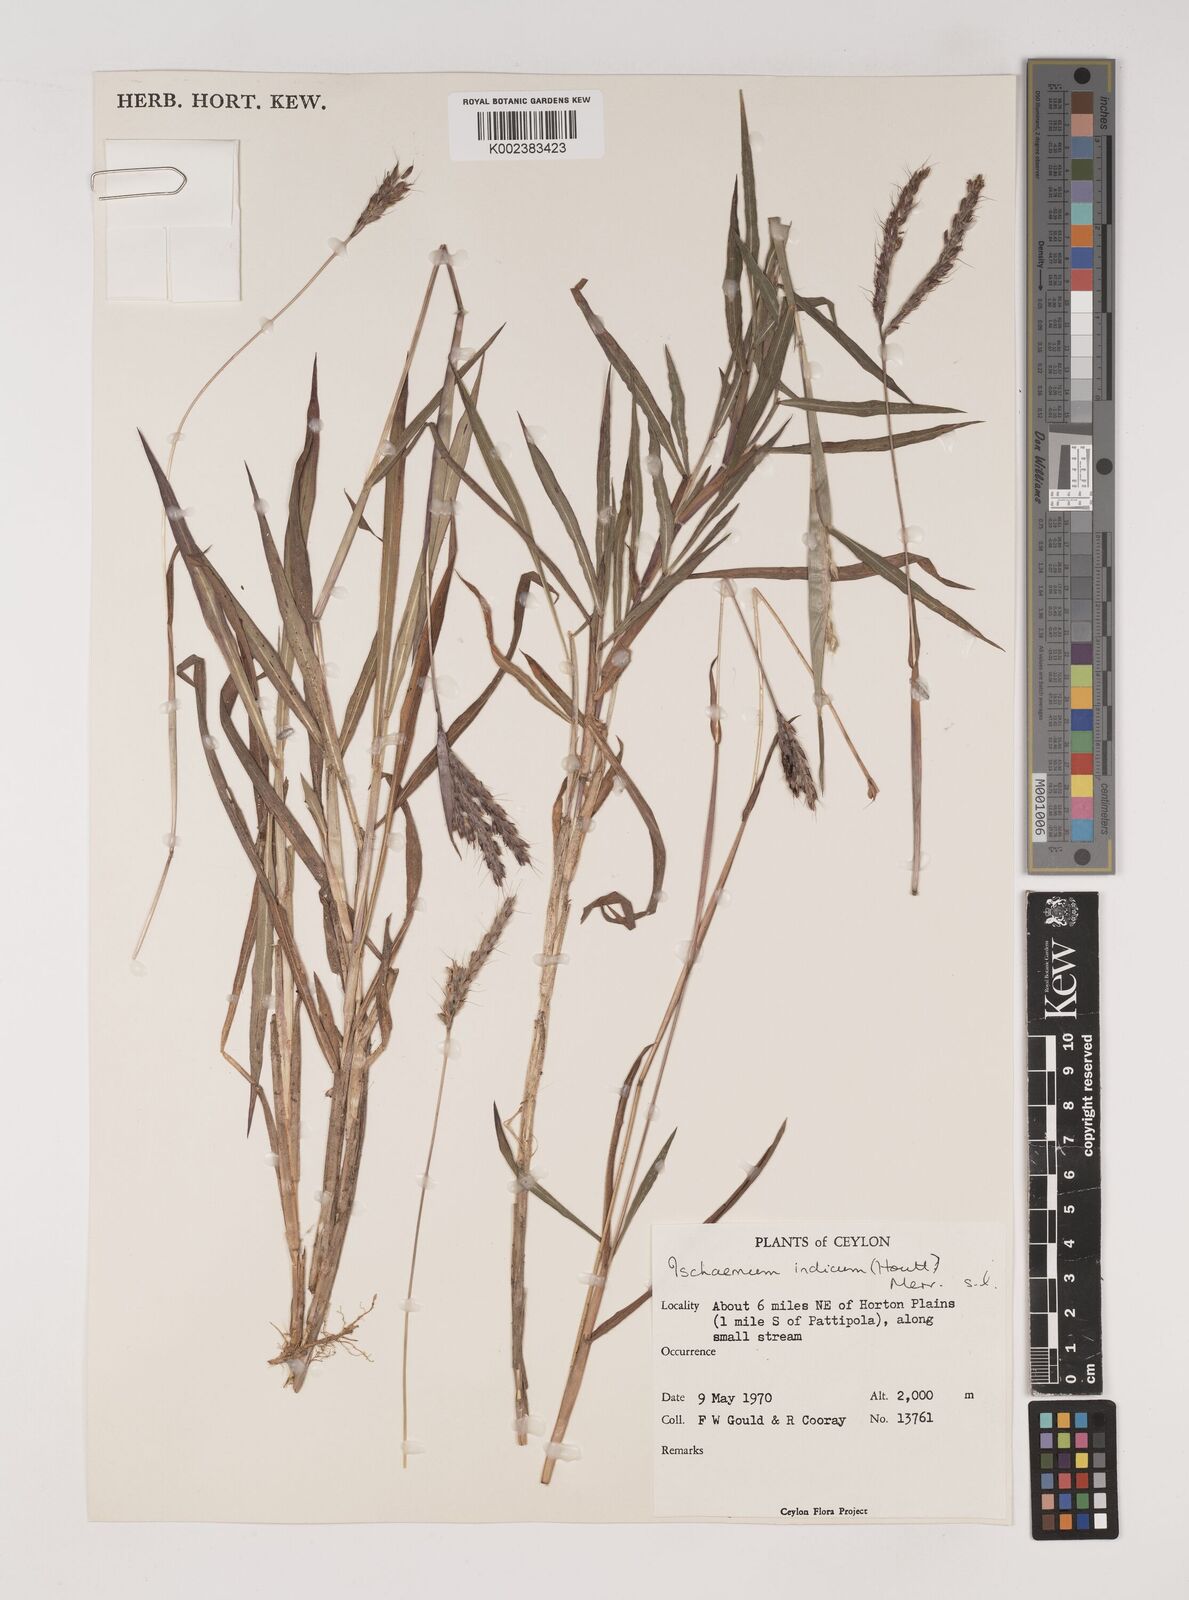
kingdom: Plantae
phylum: Tracheophyta
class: Liliopsida
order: Poales
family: Poaceae
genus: Polytrias
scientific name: Polytrias indica
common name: Indian murainagrass
